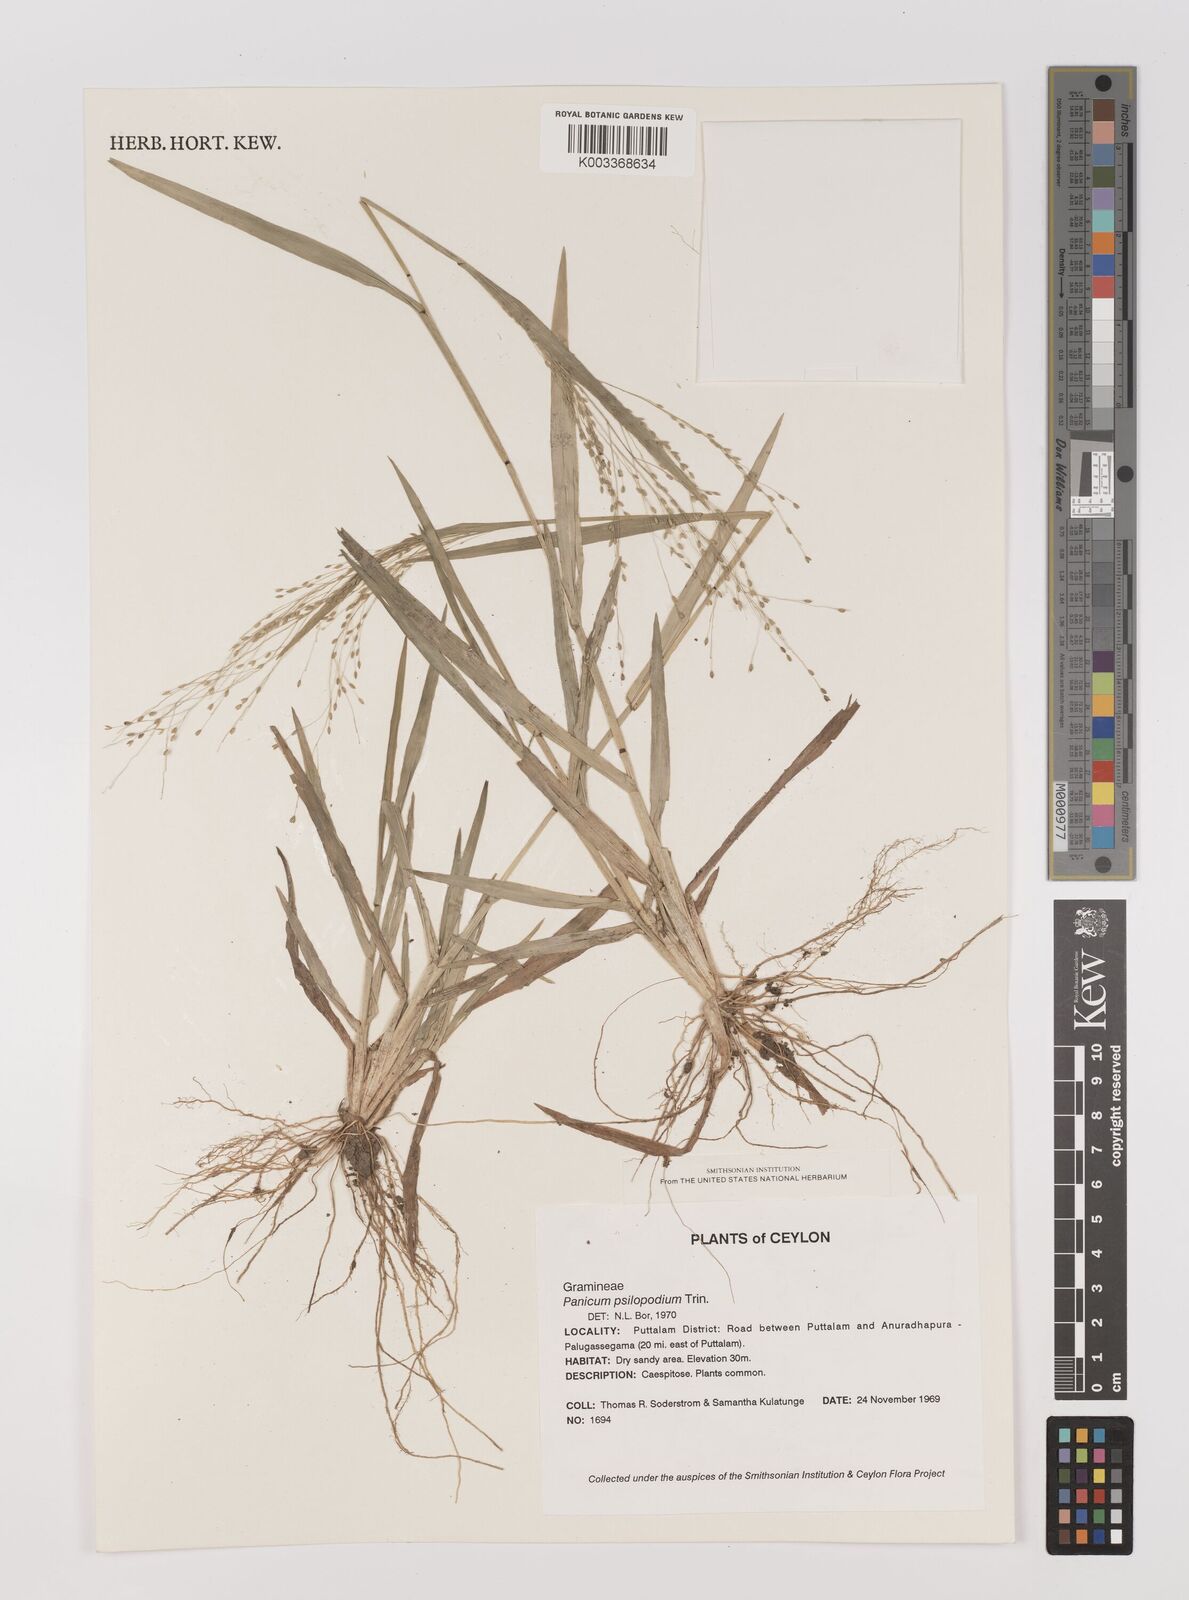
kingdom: Plantae
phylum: Tracheophyta
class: Liliopsida
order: Poales
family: Poaceae
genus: Panicum
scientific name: Panicum sumatrense
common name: Little millet
